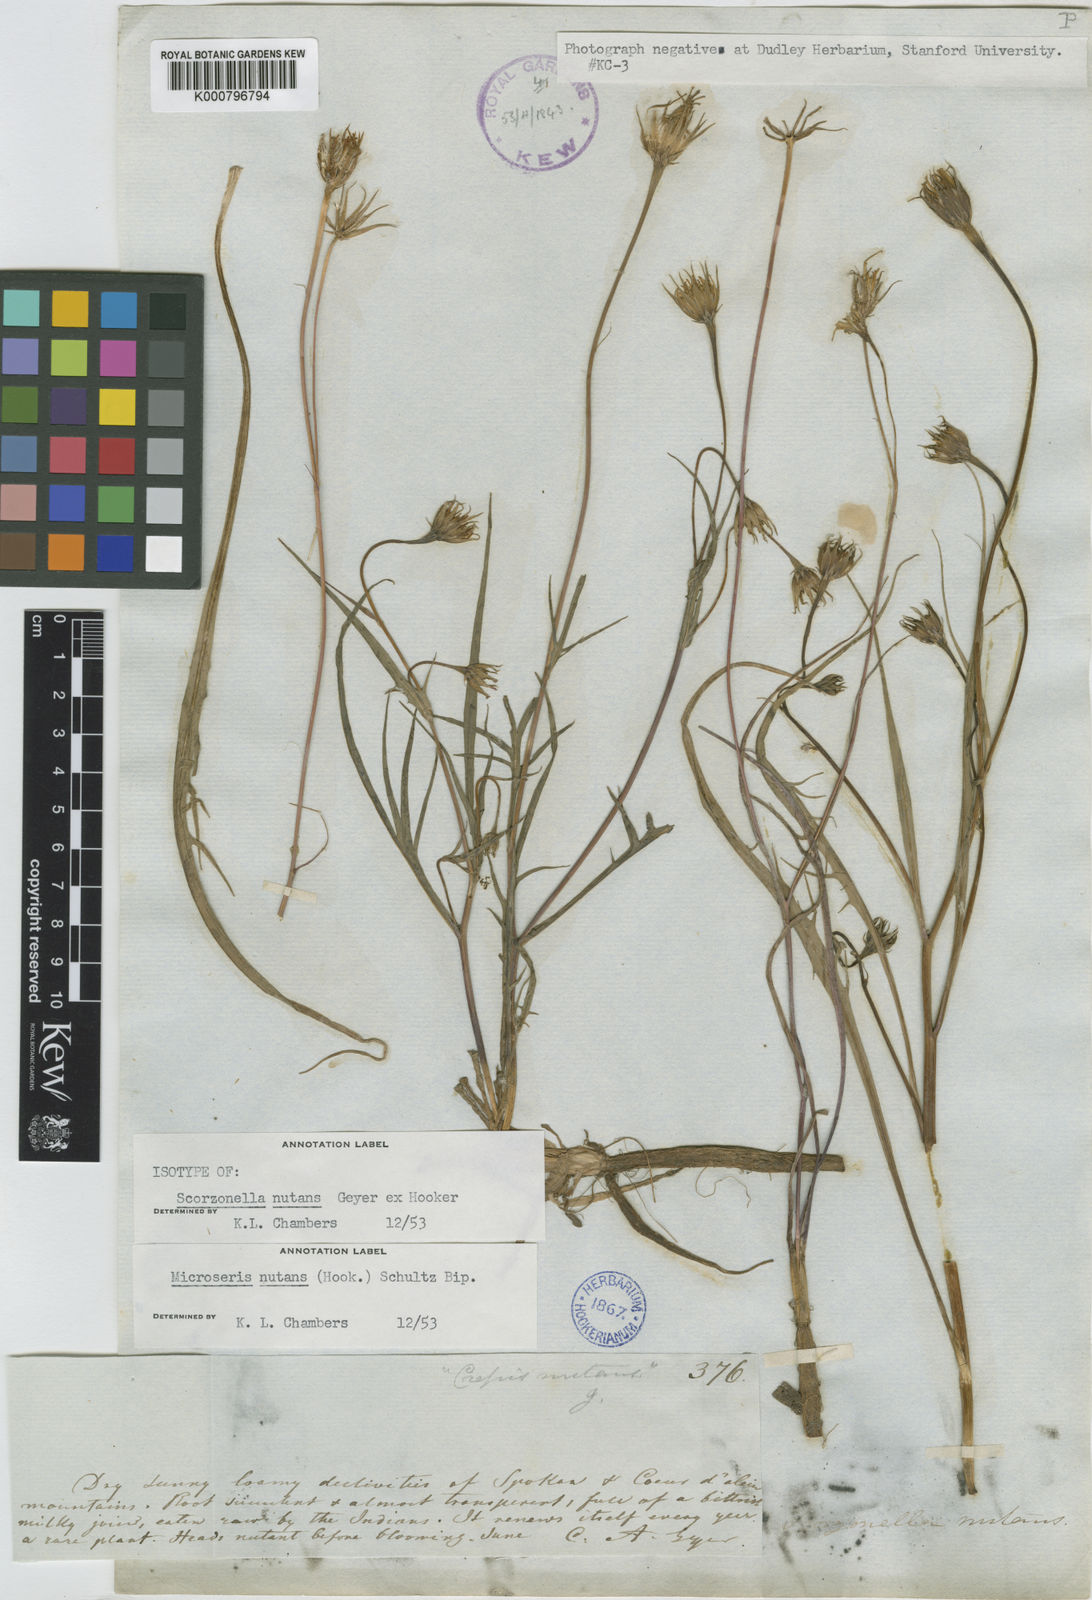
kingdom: Plantae
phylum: Tracheophyta
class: Magnoliopsida
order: Asterales
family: Asteraceae
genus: Microseris
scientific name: Microseris nutans
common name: Nodding microseris
